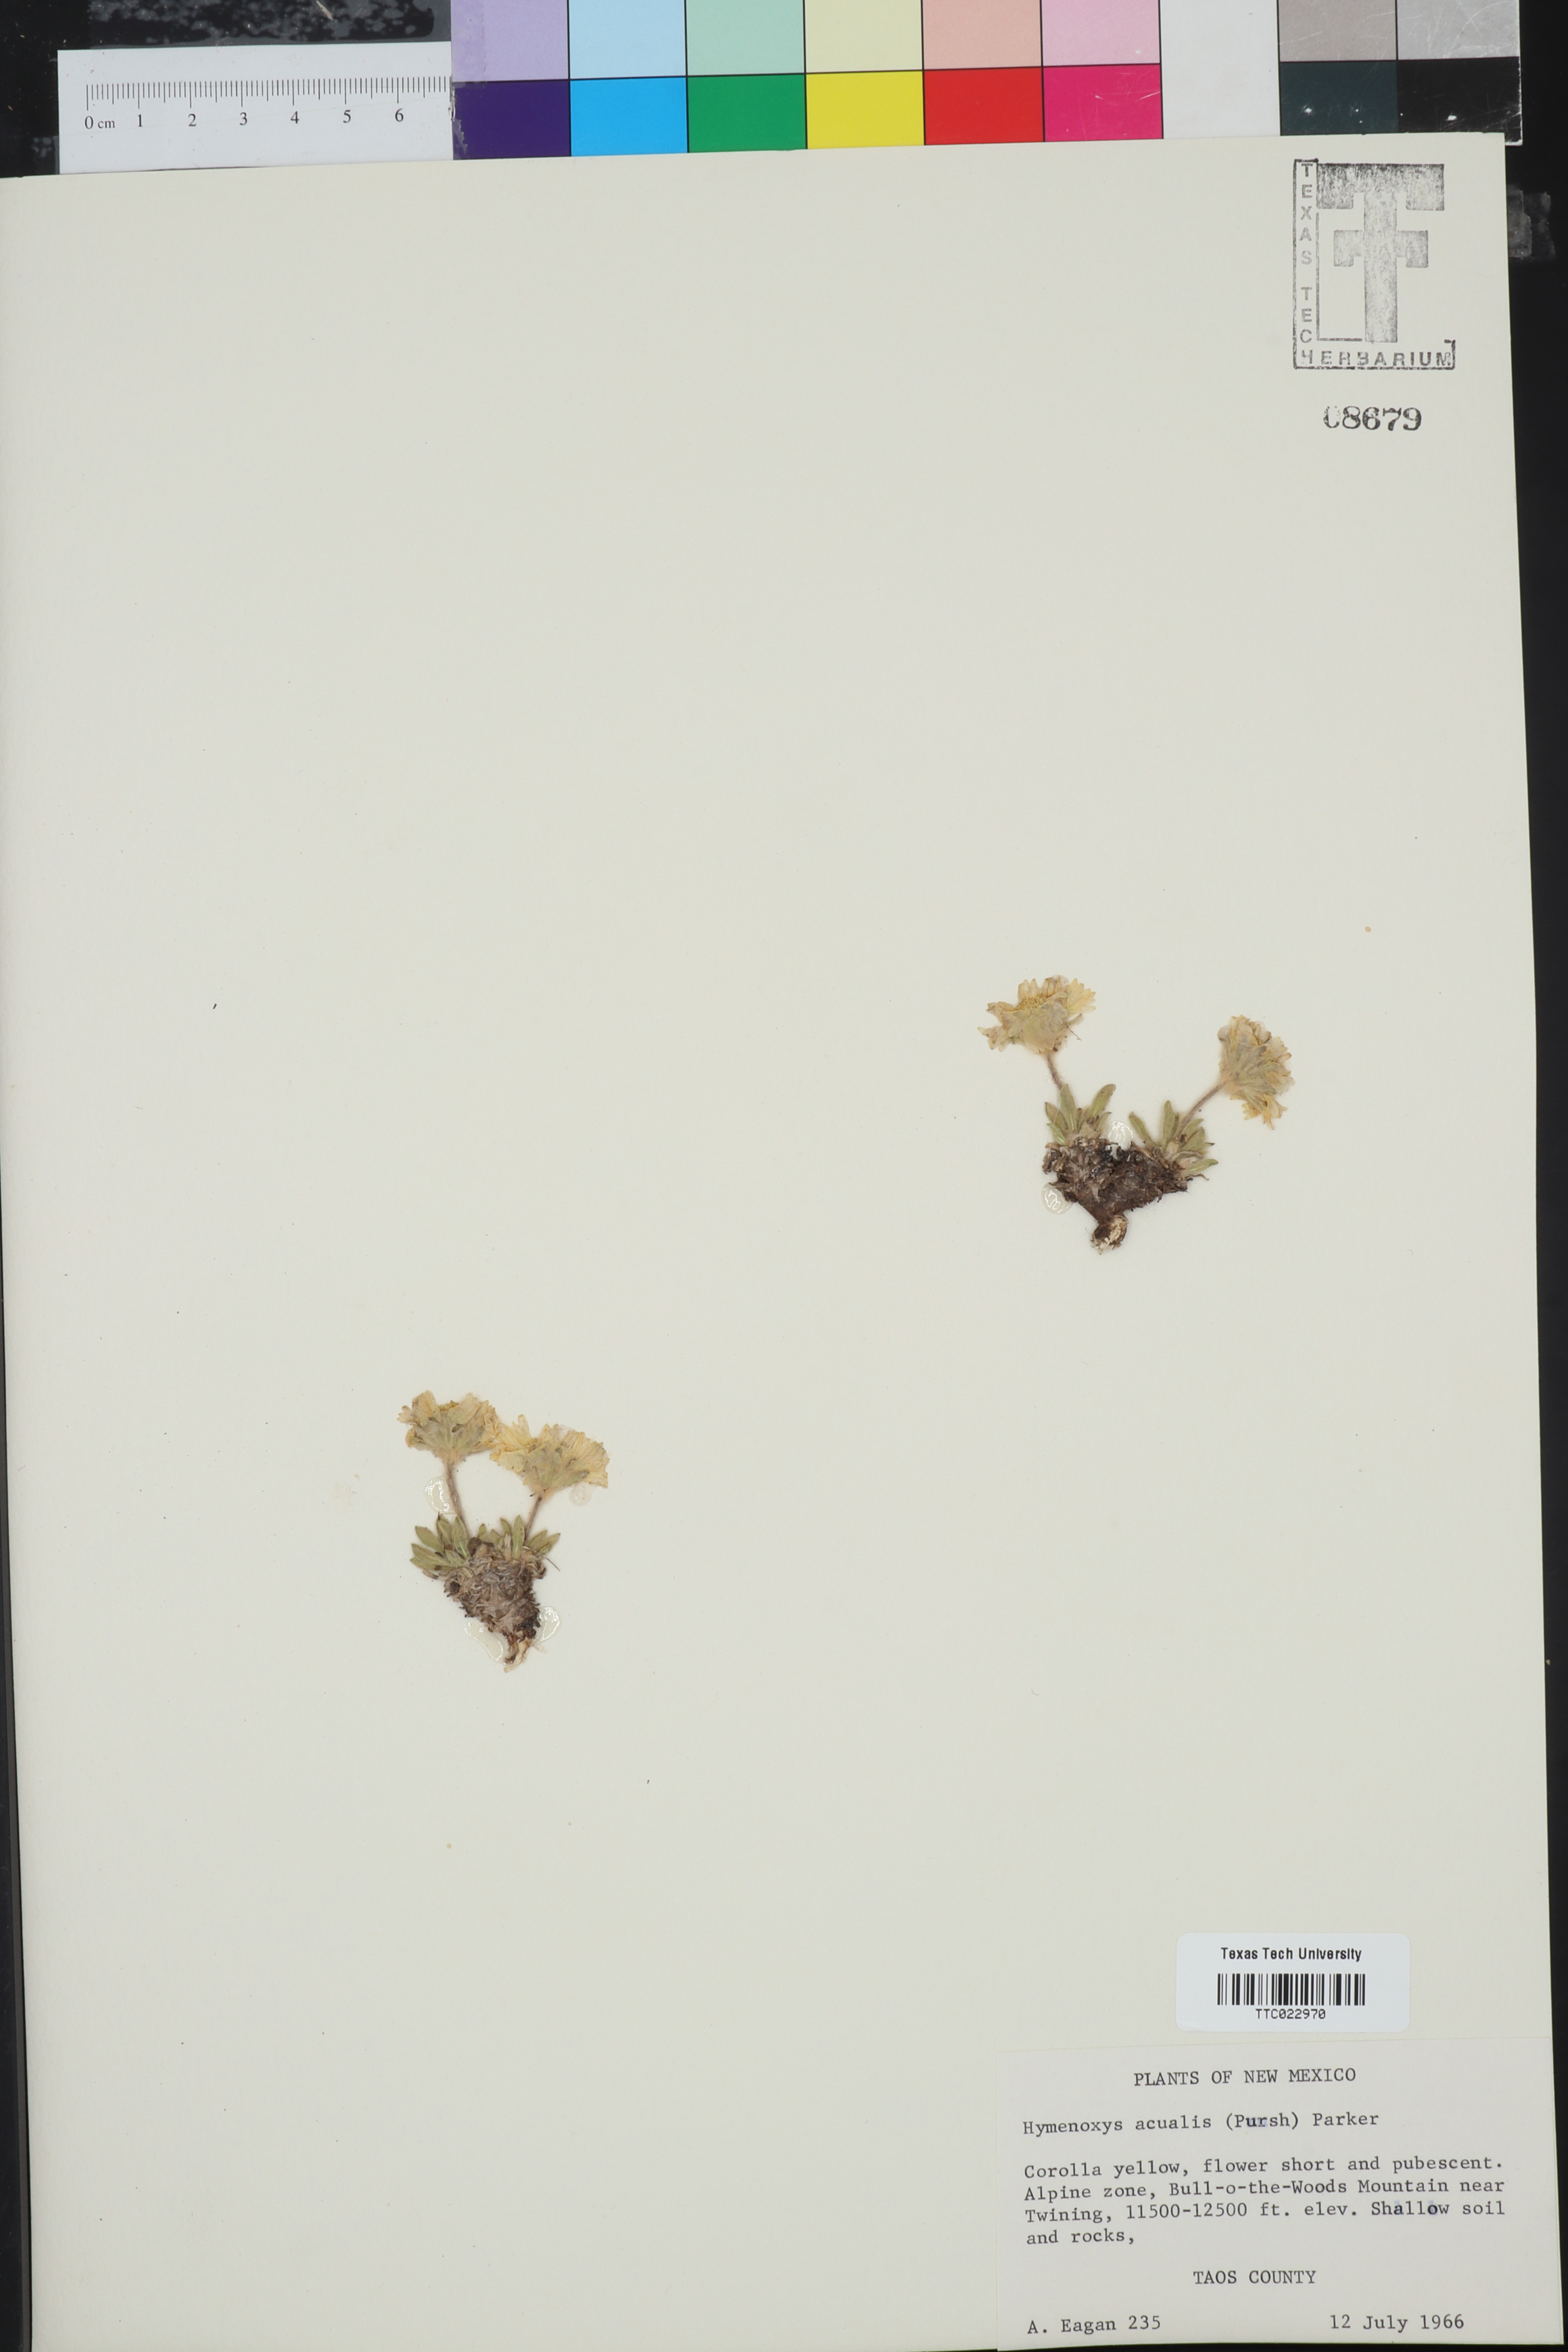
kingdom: Plantae
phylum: Tracheophyta
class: Magnoliopsida
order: Asterales
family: Asteraceae
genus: Tetraneuris
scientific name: Tetraneuris acaulis
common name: Butte marigold
